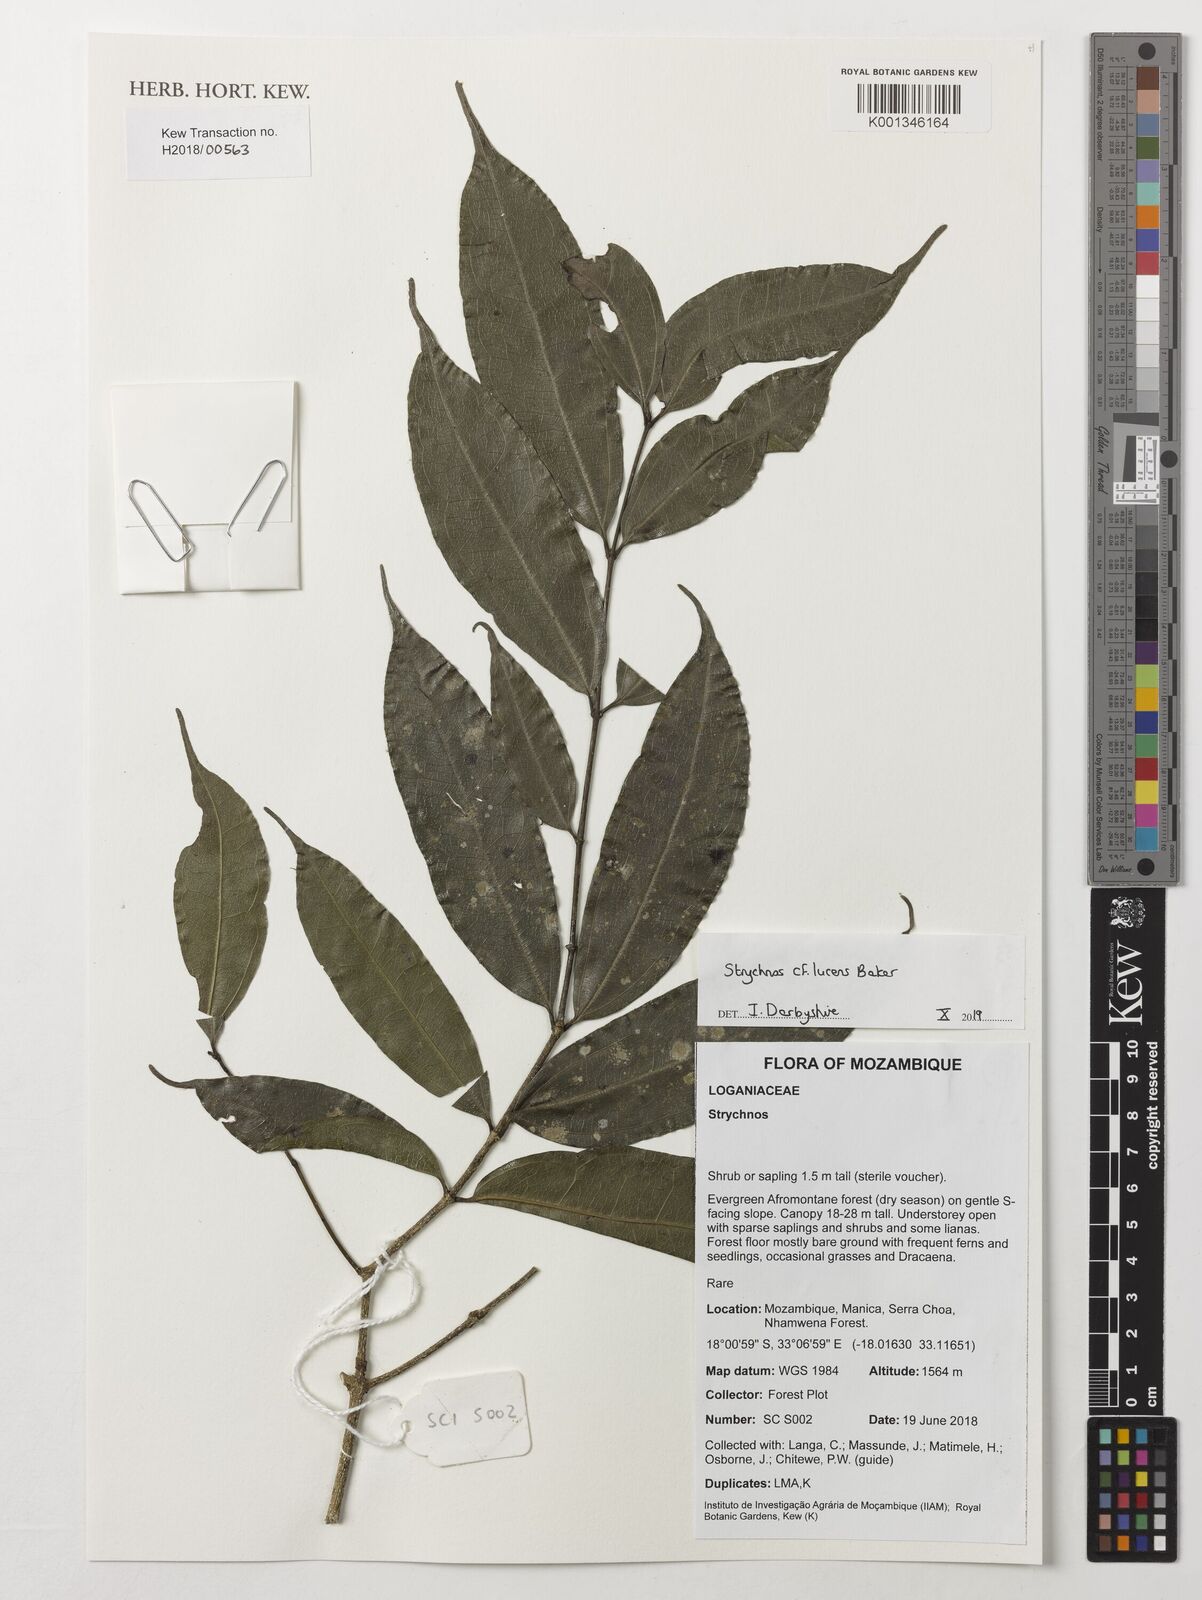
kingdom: Plantae
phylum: Tracheophyta
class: Magnoliopsida
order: Gentianales
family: Loganiaceae
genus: Strychnos
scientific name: Strychnos lucens
